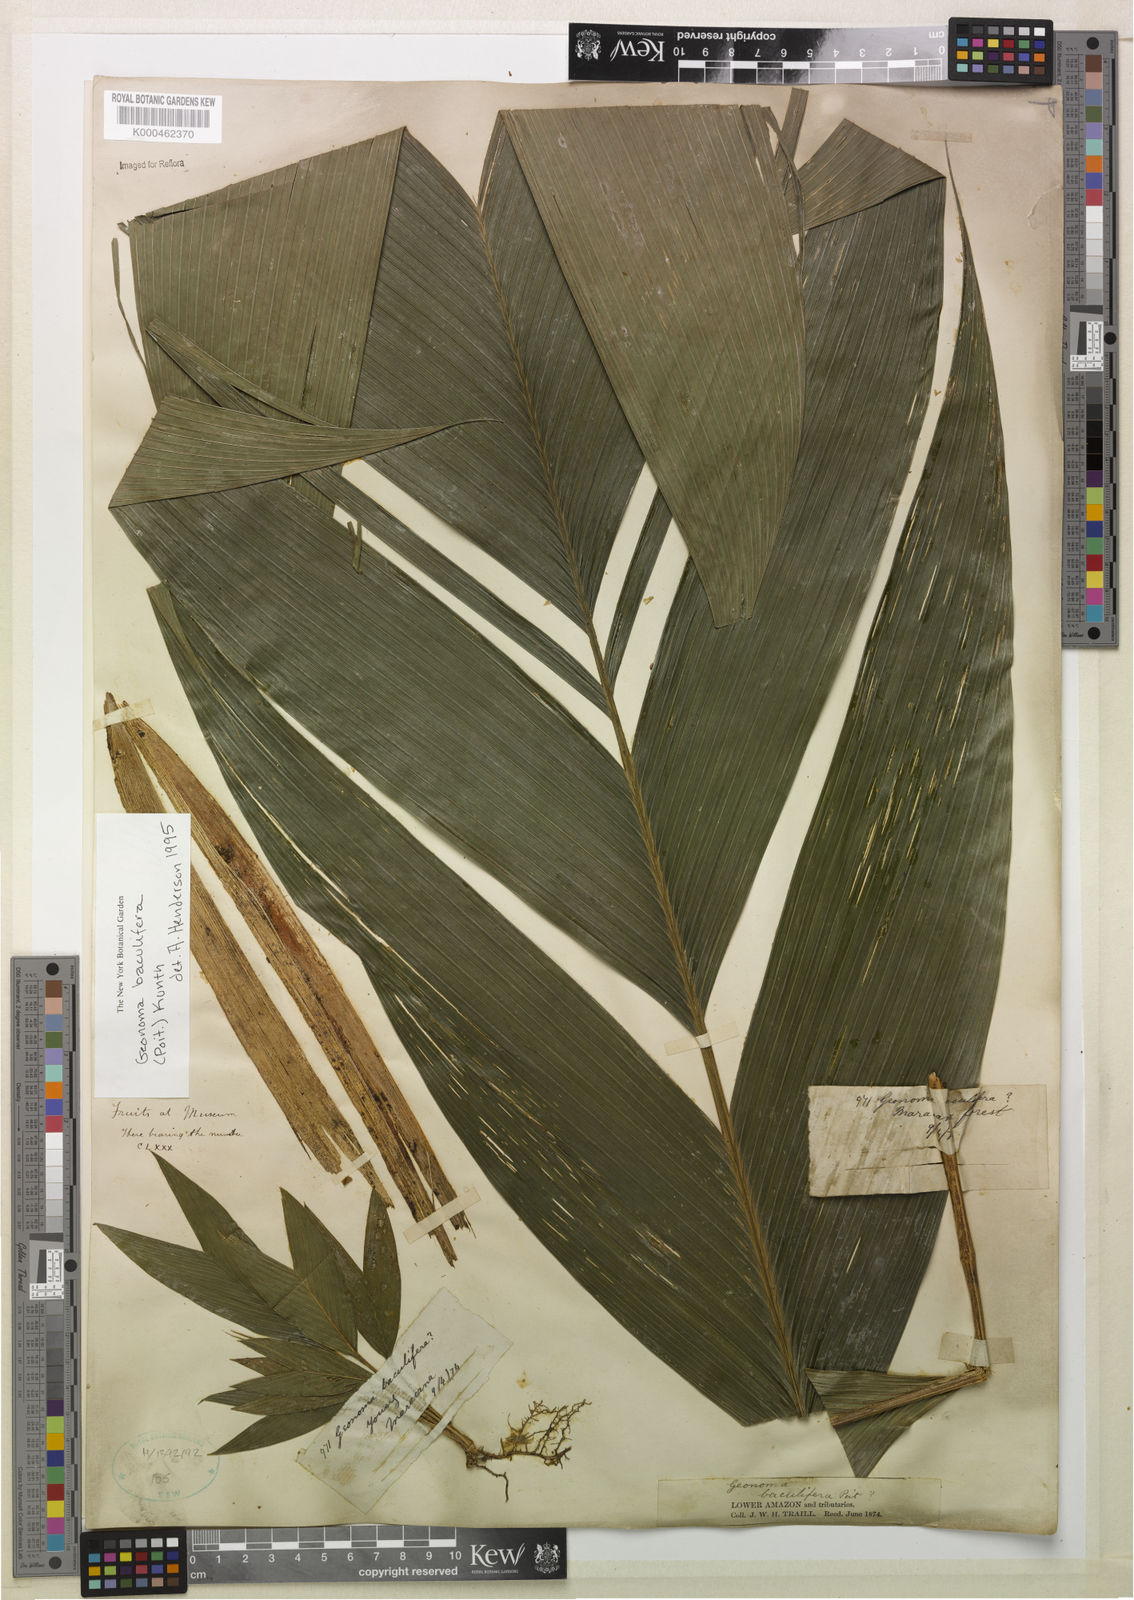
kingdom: Plantae
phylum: Tracheophyta
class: Liliopsida
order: Arecales
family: Arecaceae
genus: Geonoma
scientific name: Geonoma baculifera
